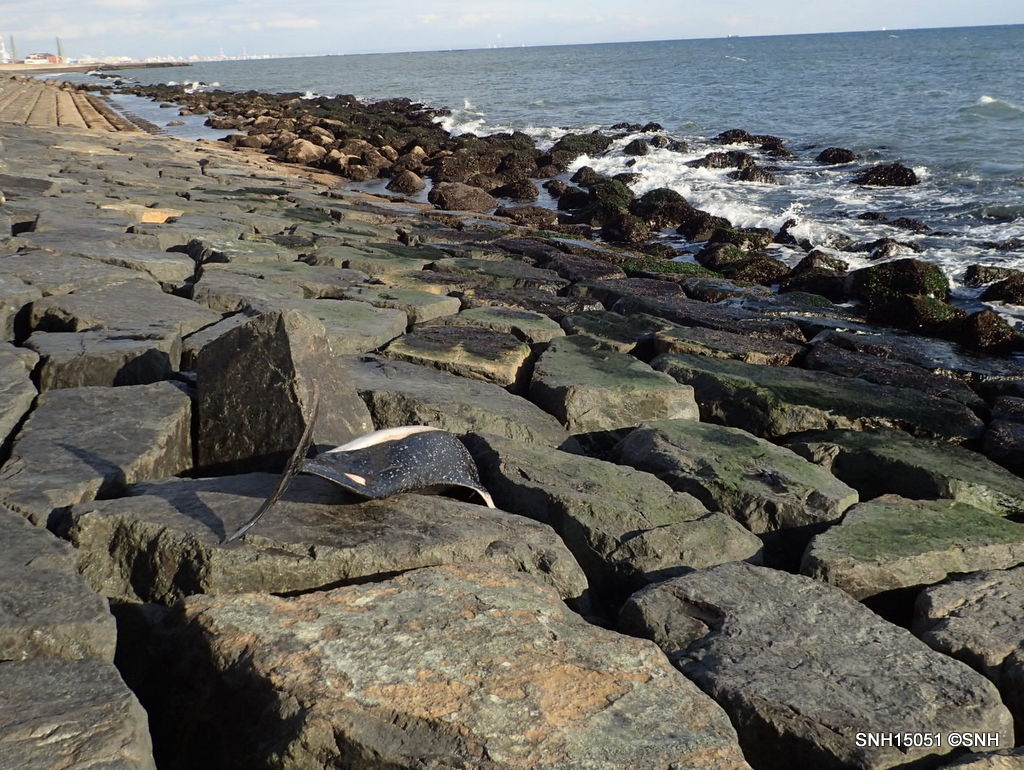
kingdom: Animalia
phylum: Chordata
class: Mammalia
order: Cetacea
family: Phocoenidae
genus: Phocoenoides
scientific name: Phocoenoides dalli
